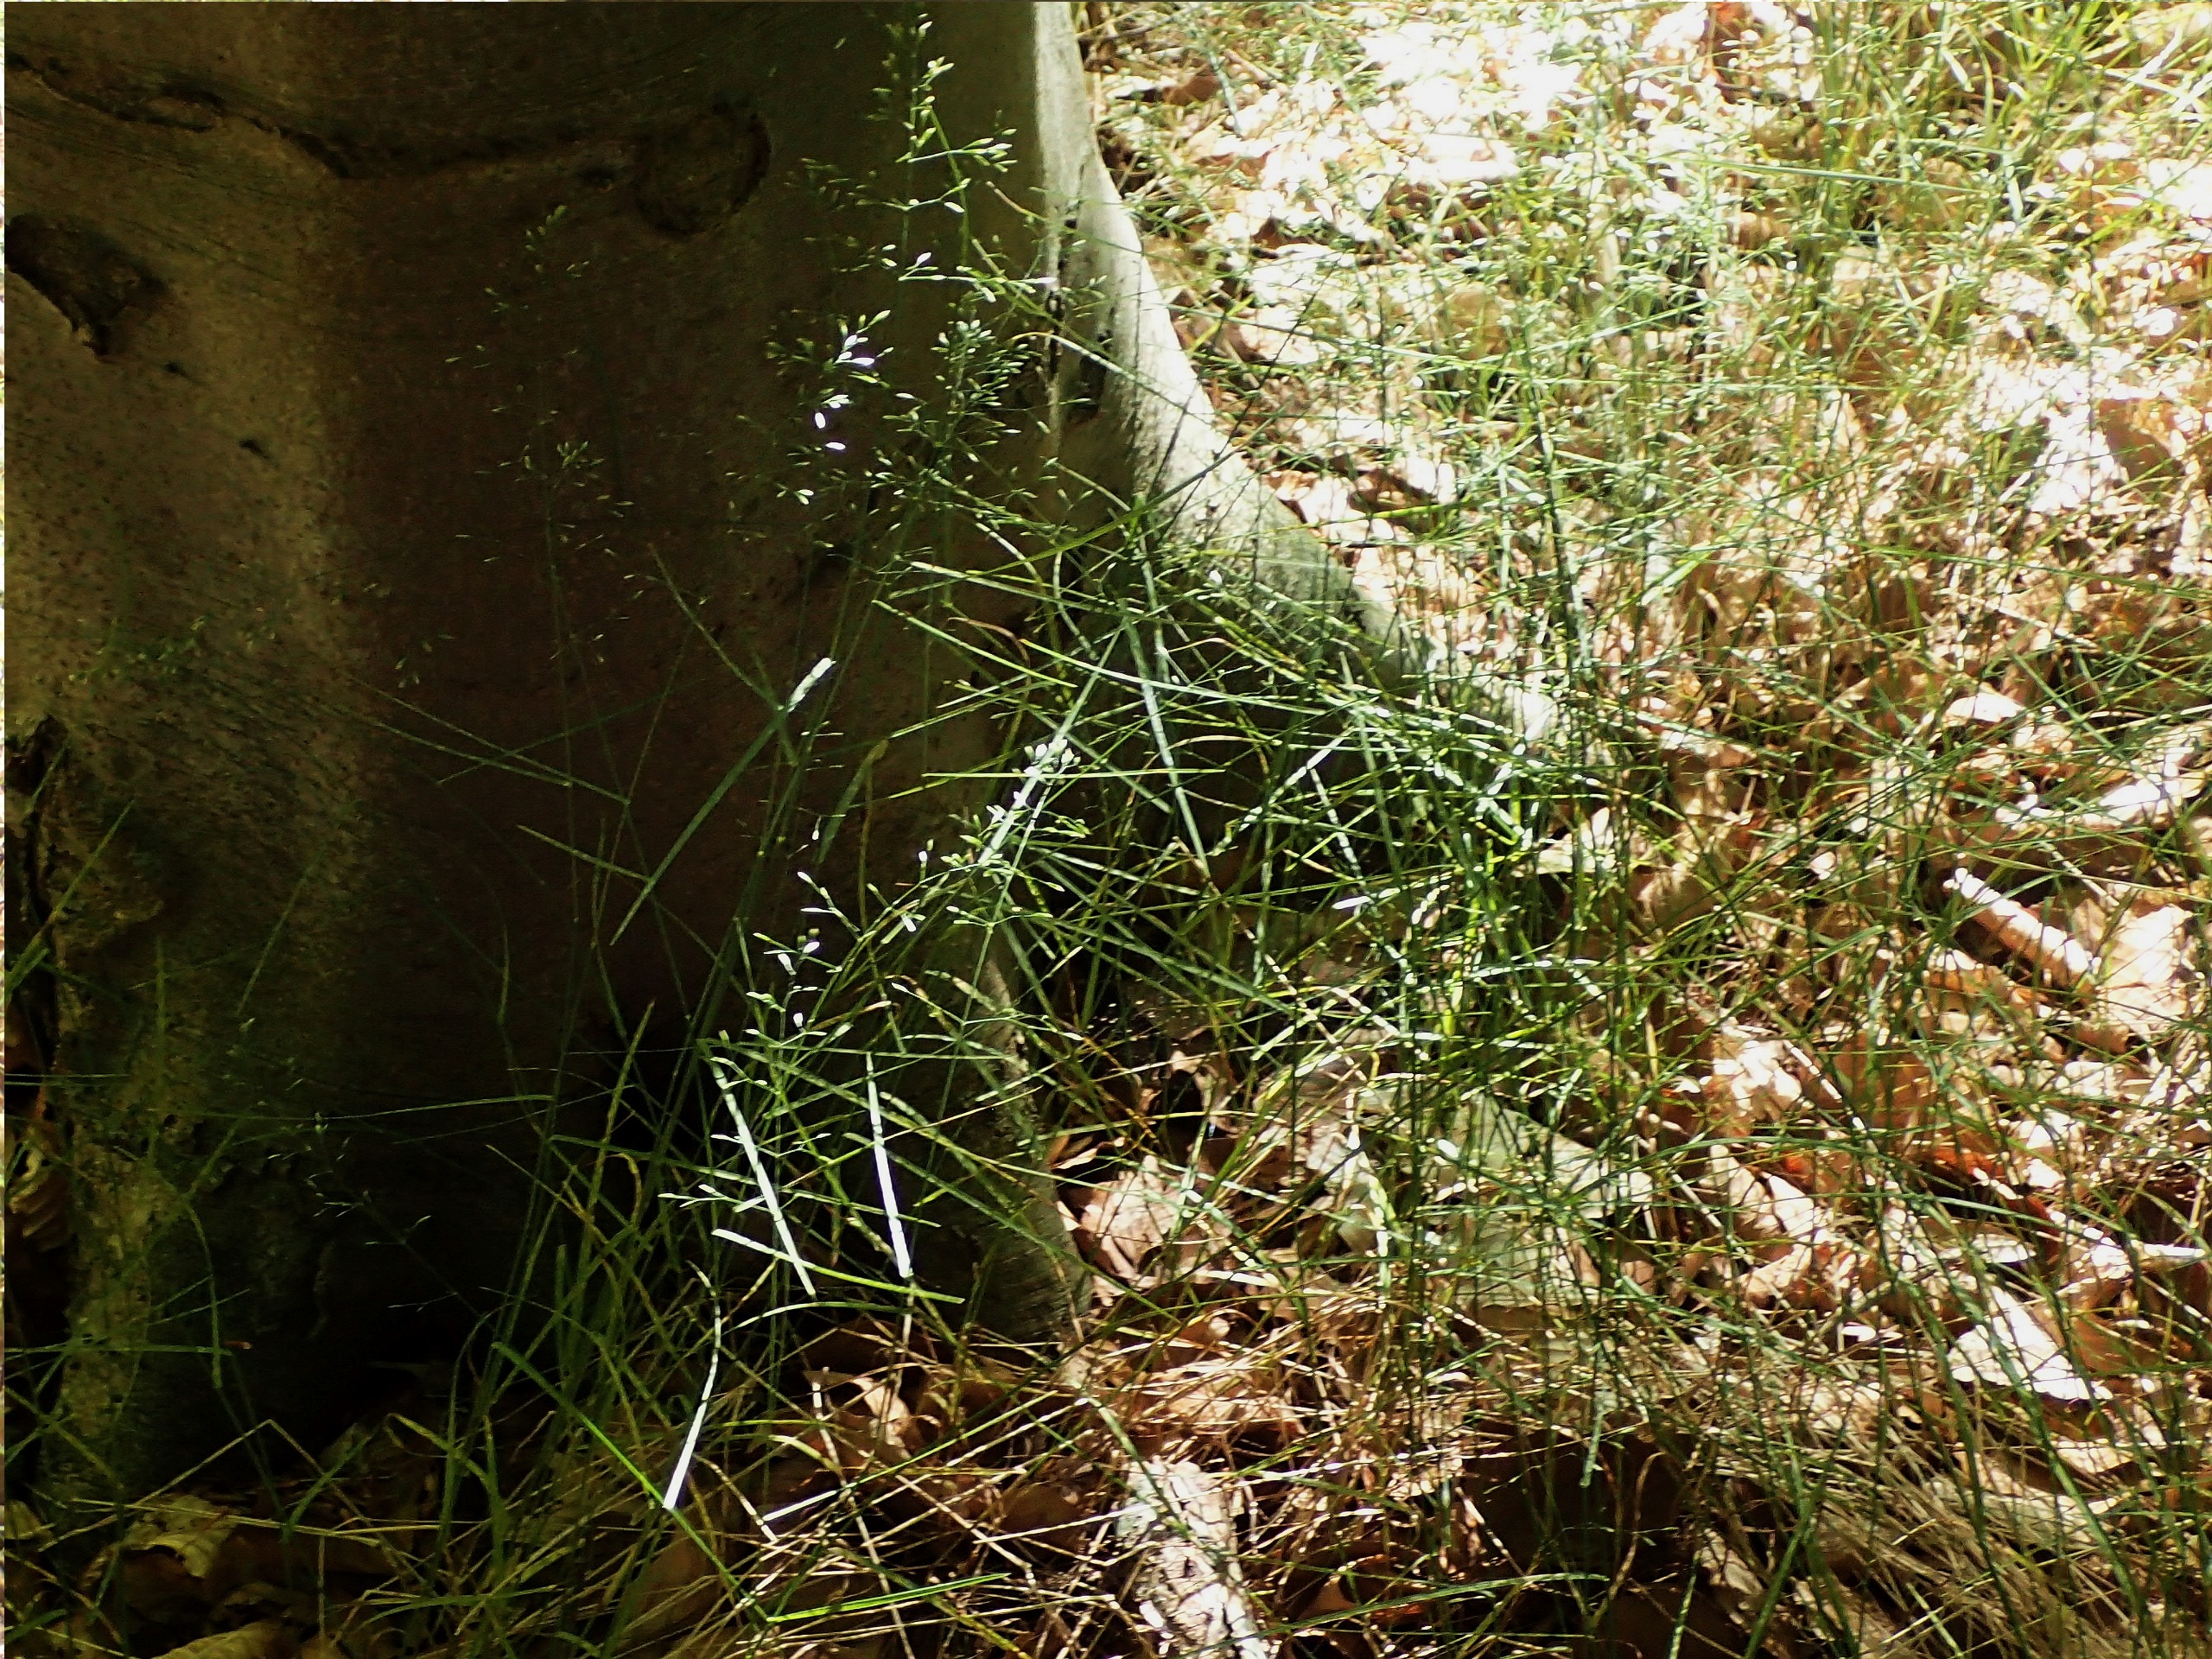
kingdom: Plantae
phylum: Tracheophyta
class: Liliopsida
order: Poales
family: Poaceae
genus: Poa
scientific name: Poa nemoralis
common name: Lund-rapgræs
